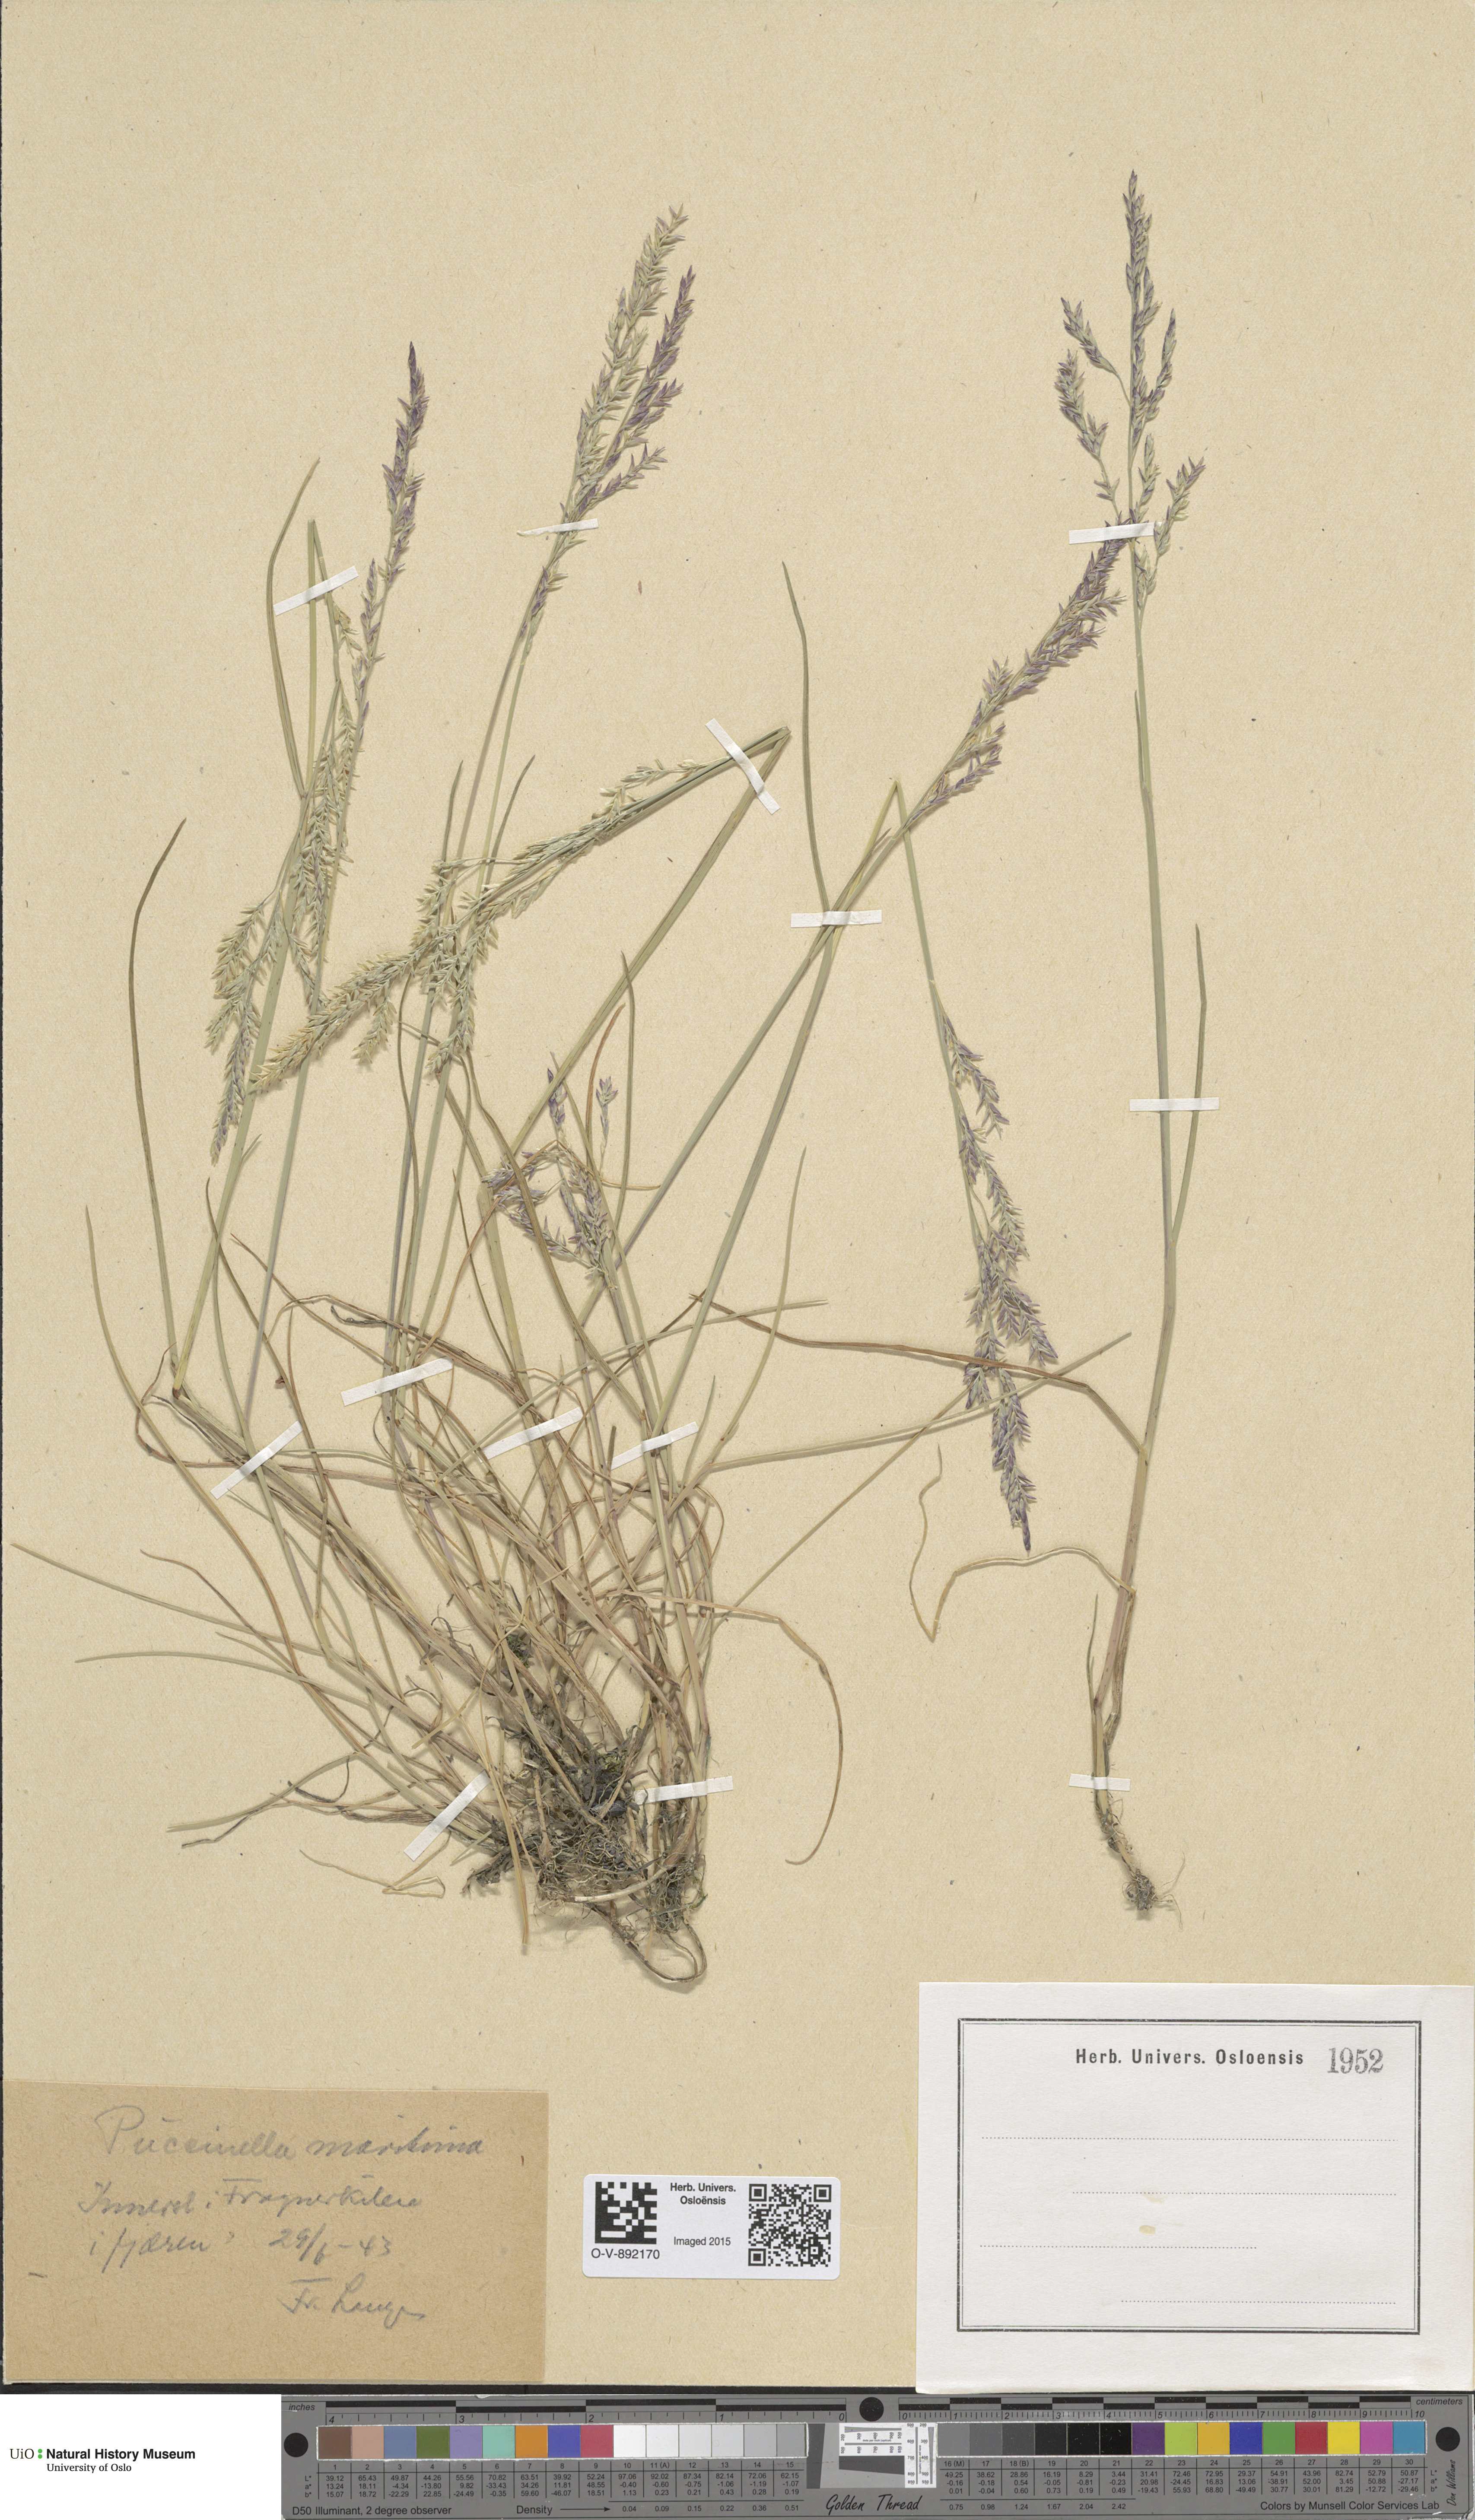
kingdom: Plantae
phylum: Tracheophyta
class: Liliopsida
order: Poales
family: Poaceae
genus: Puccinellia
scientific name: Puccinellia maritima
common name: Common saltmarsh grass
